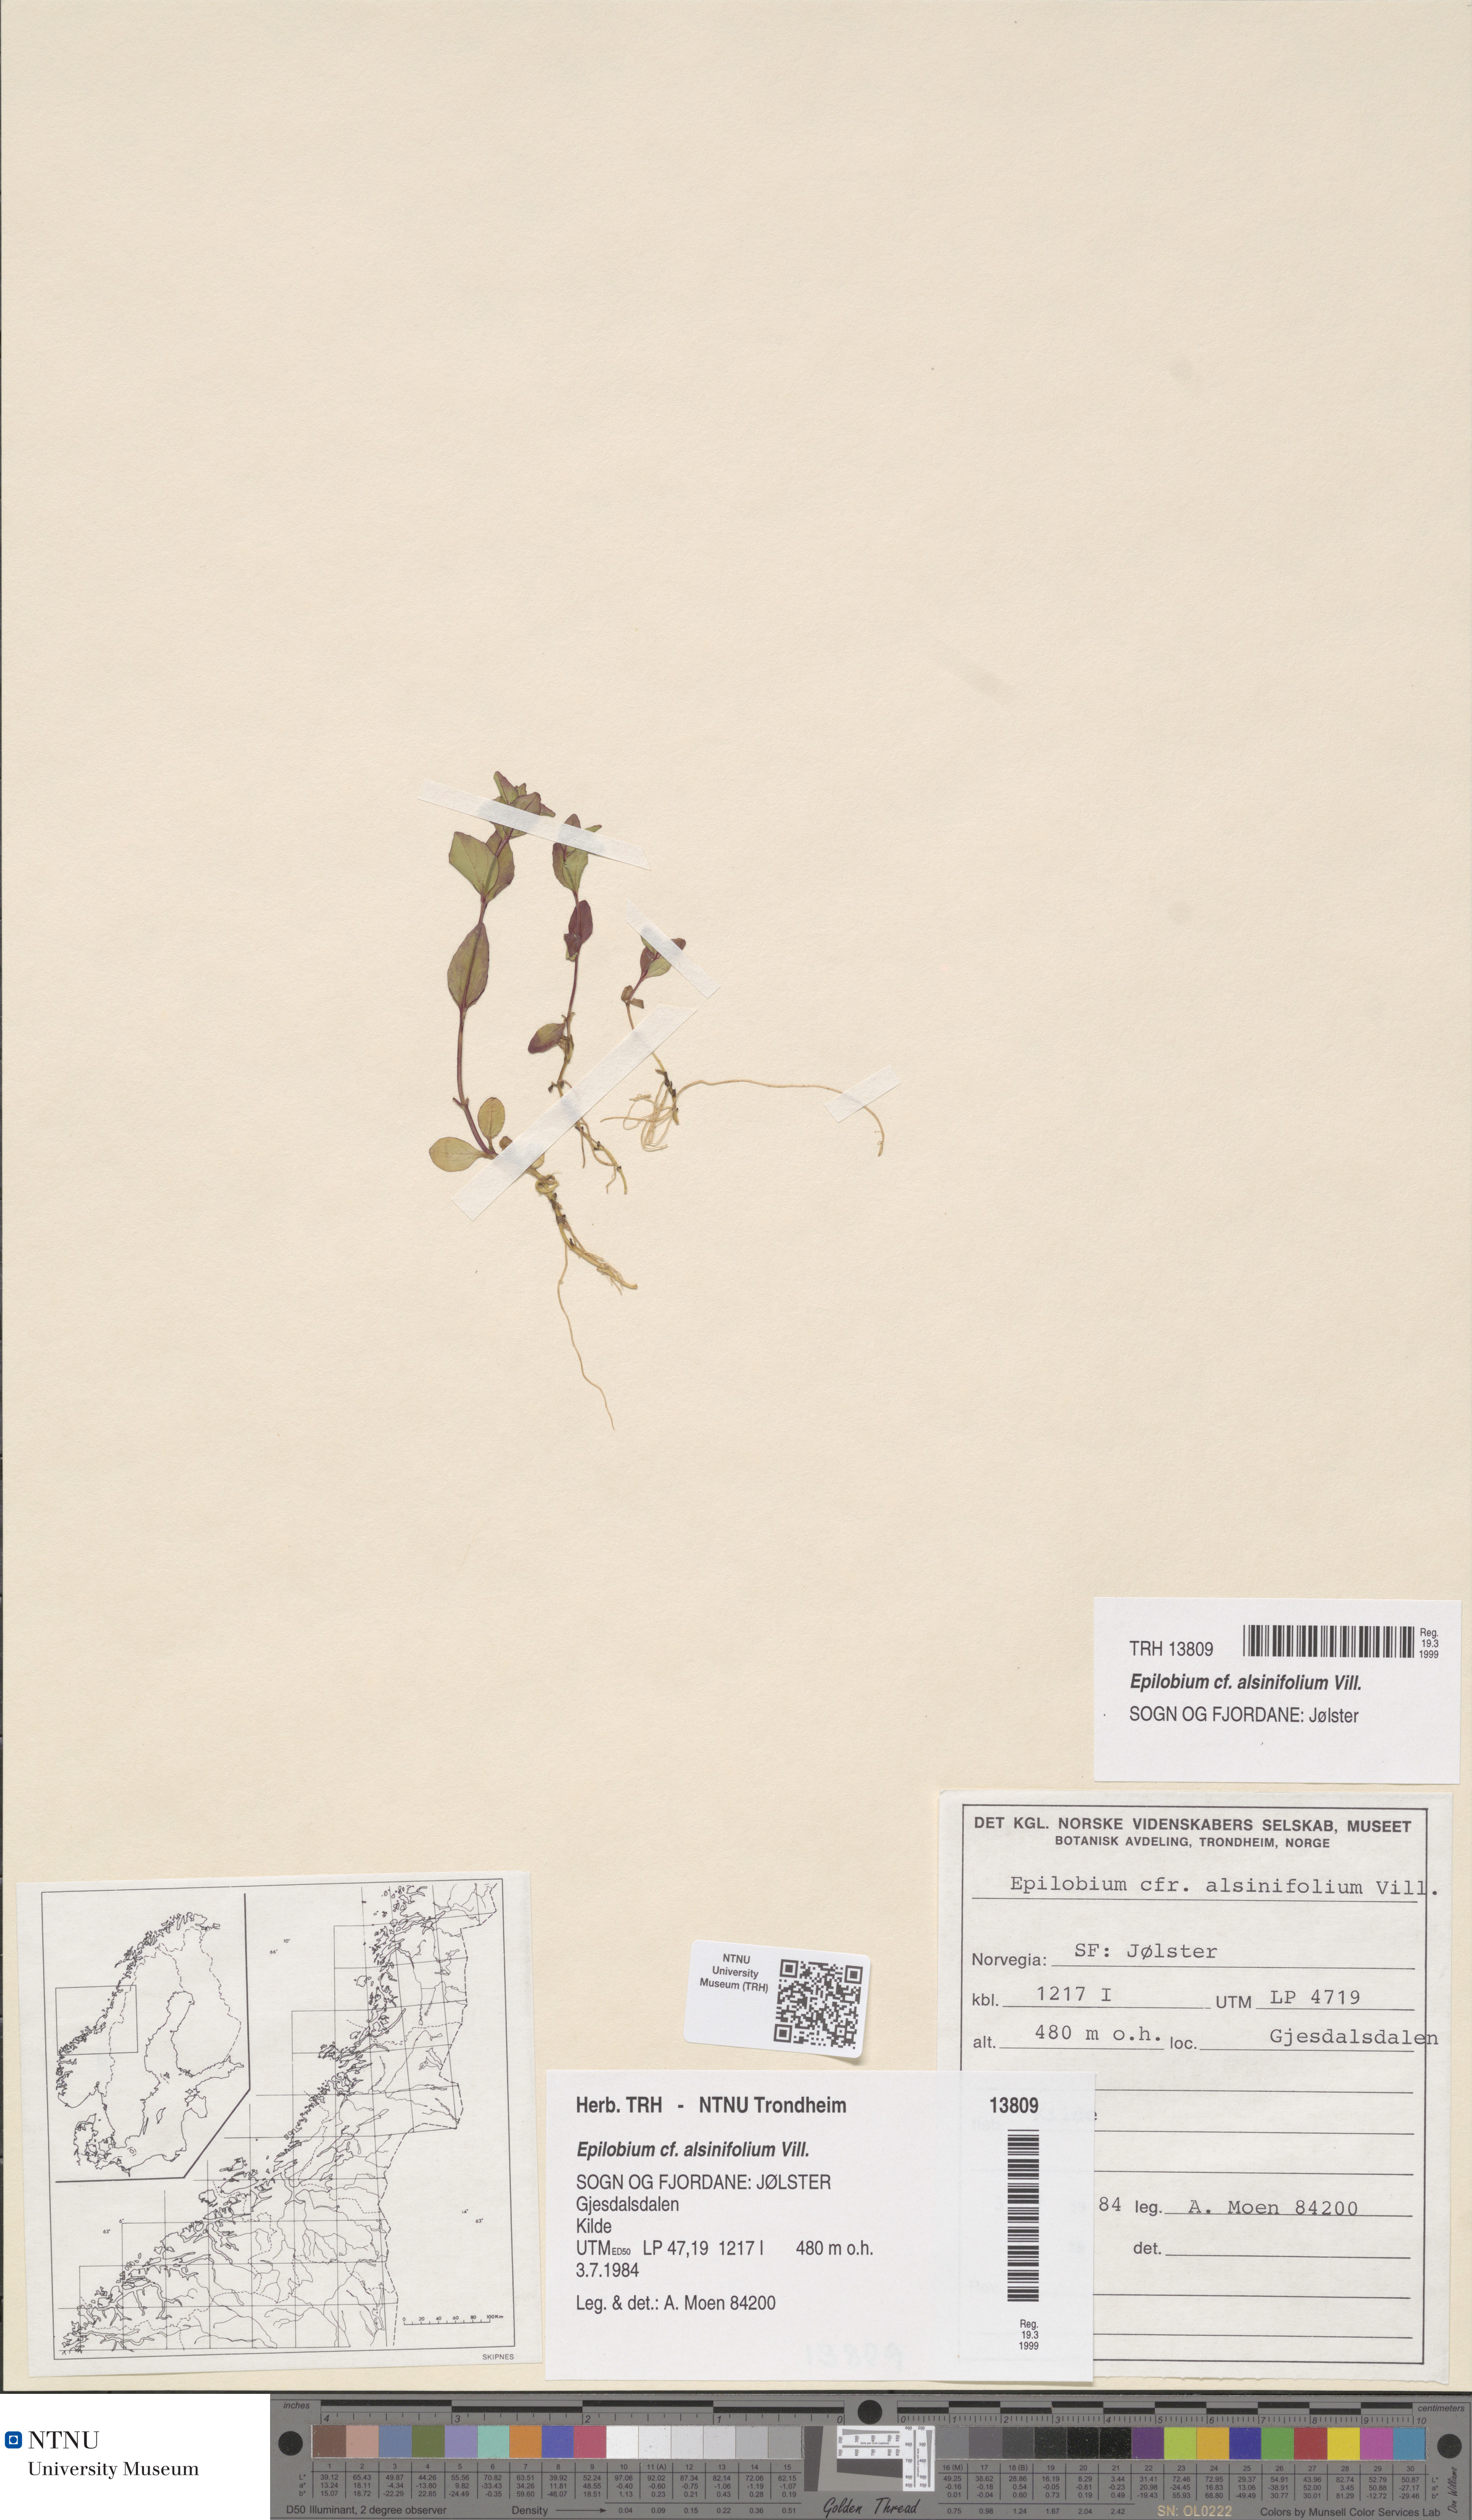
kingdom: Plantae
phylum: Tracheophyta
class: Magnoliopsida
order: Myrtales
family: Onagraceae
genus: Epilobium
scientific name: Epilobium alsinifolium
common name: Chickweed willowherb
